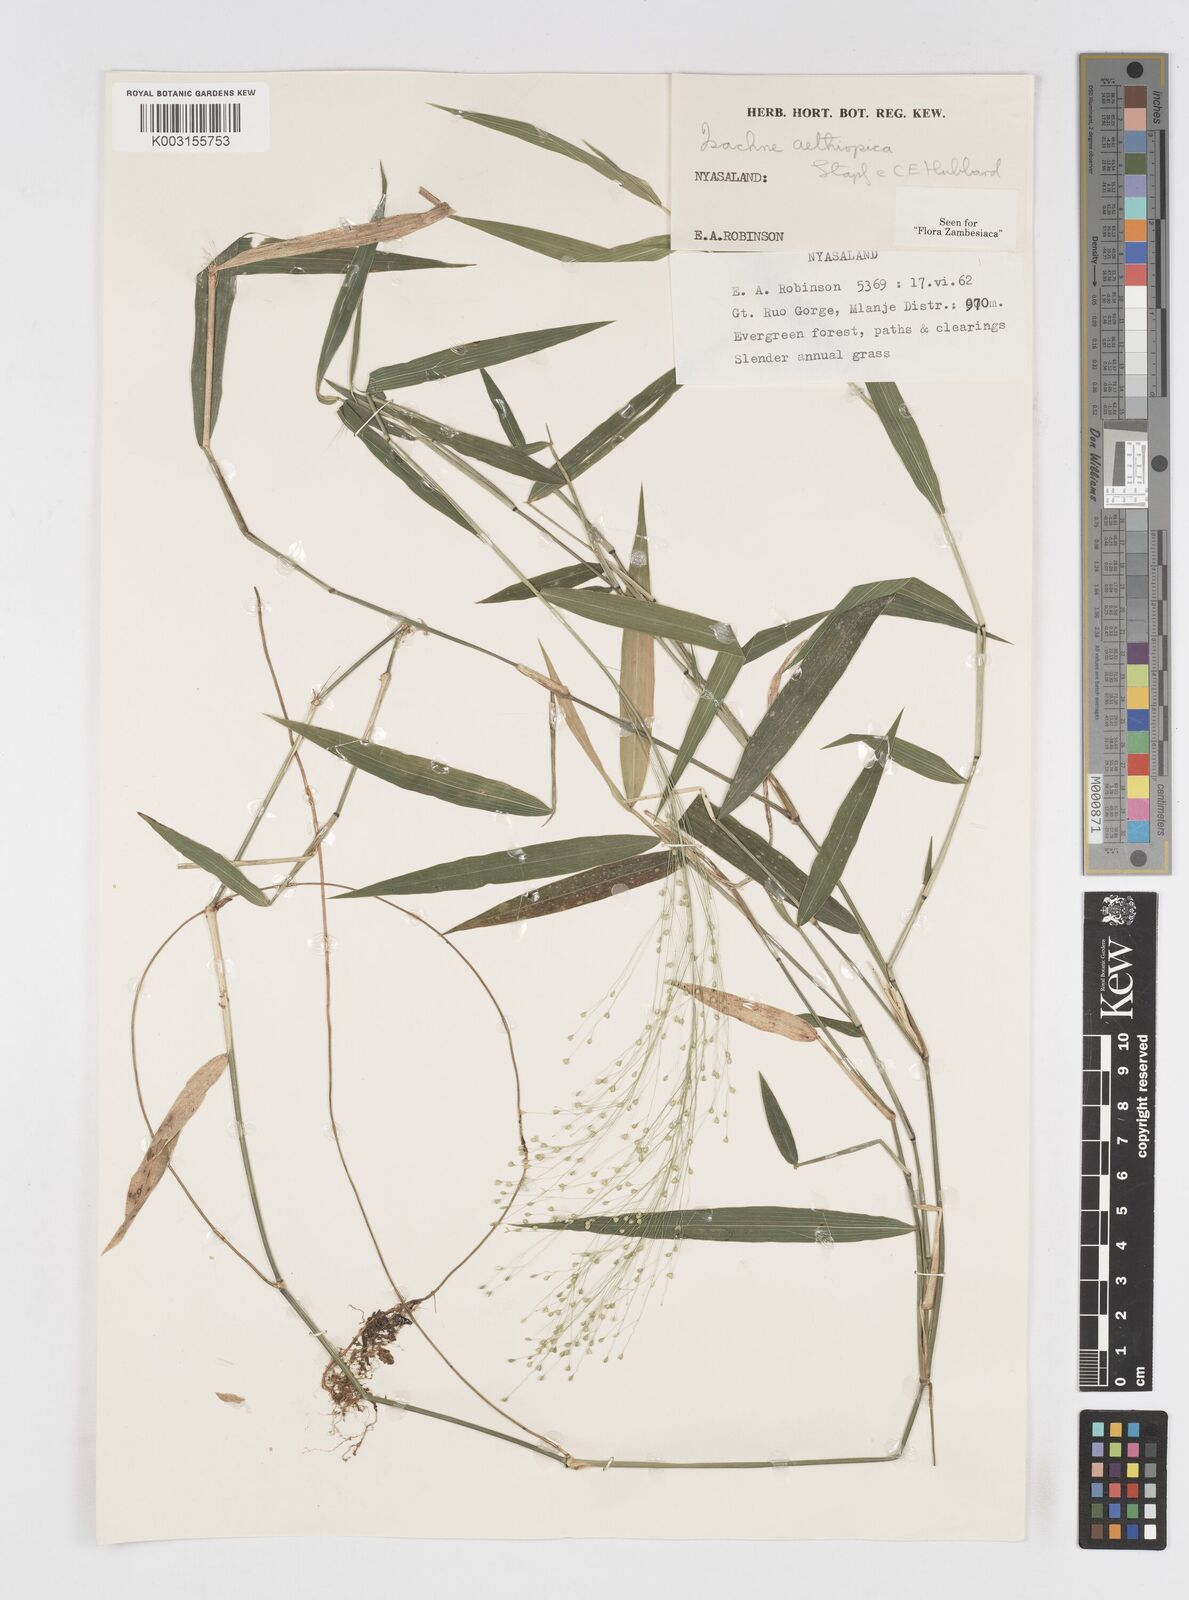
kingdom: Plantae
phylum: Tracheophyta
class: Liliopsida
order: Poales
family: Poaceae
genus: Isachne
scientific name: Isachne mauritiana
